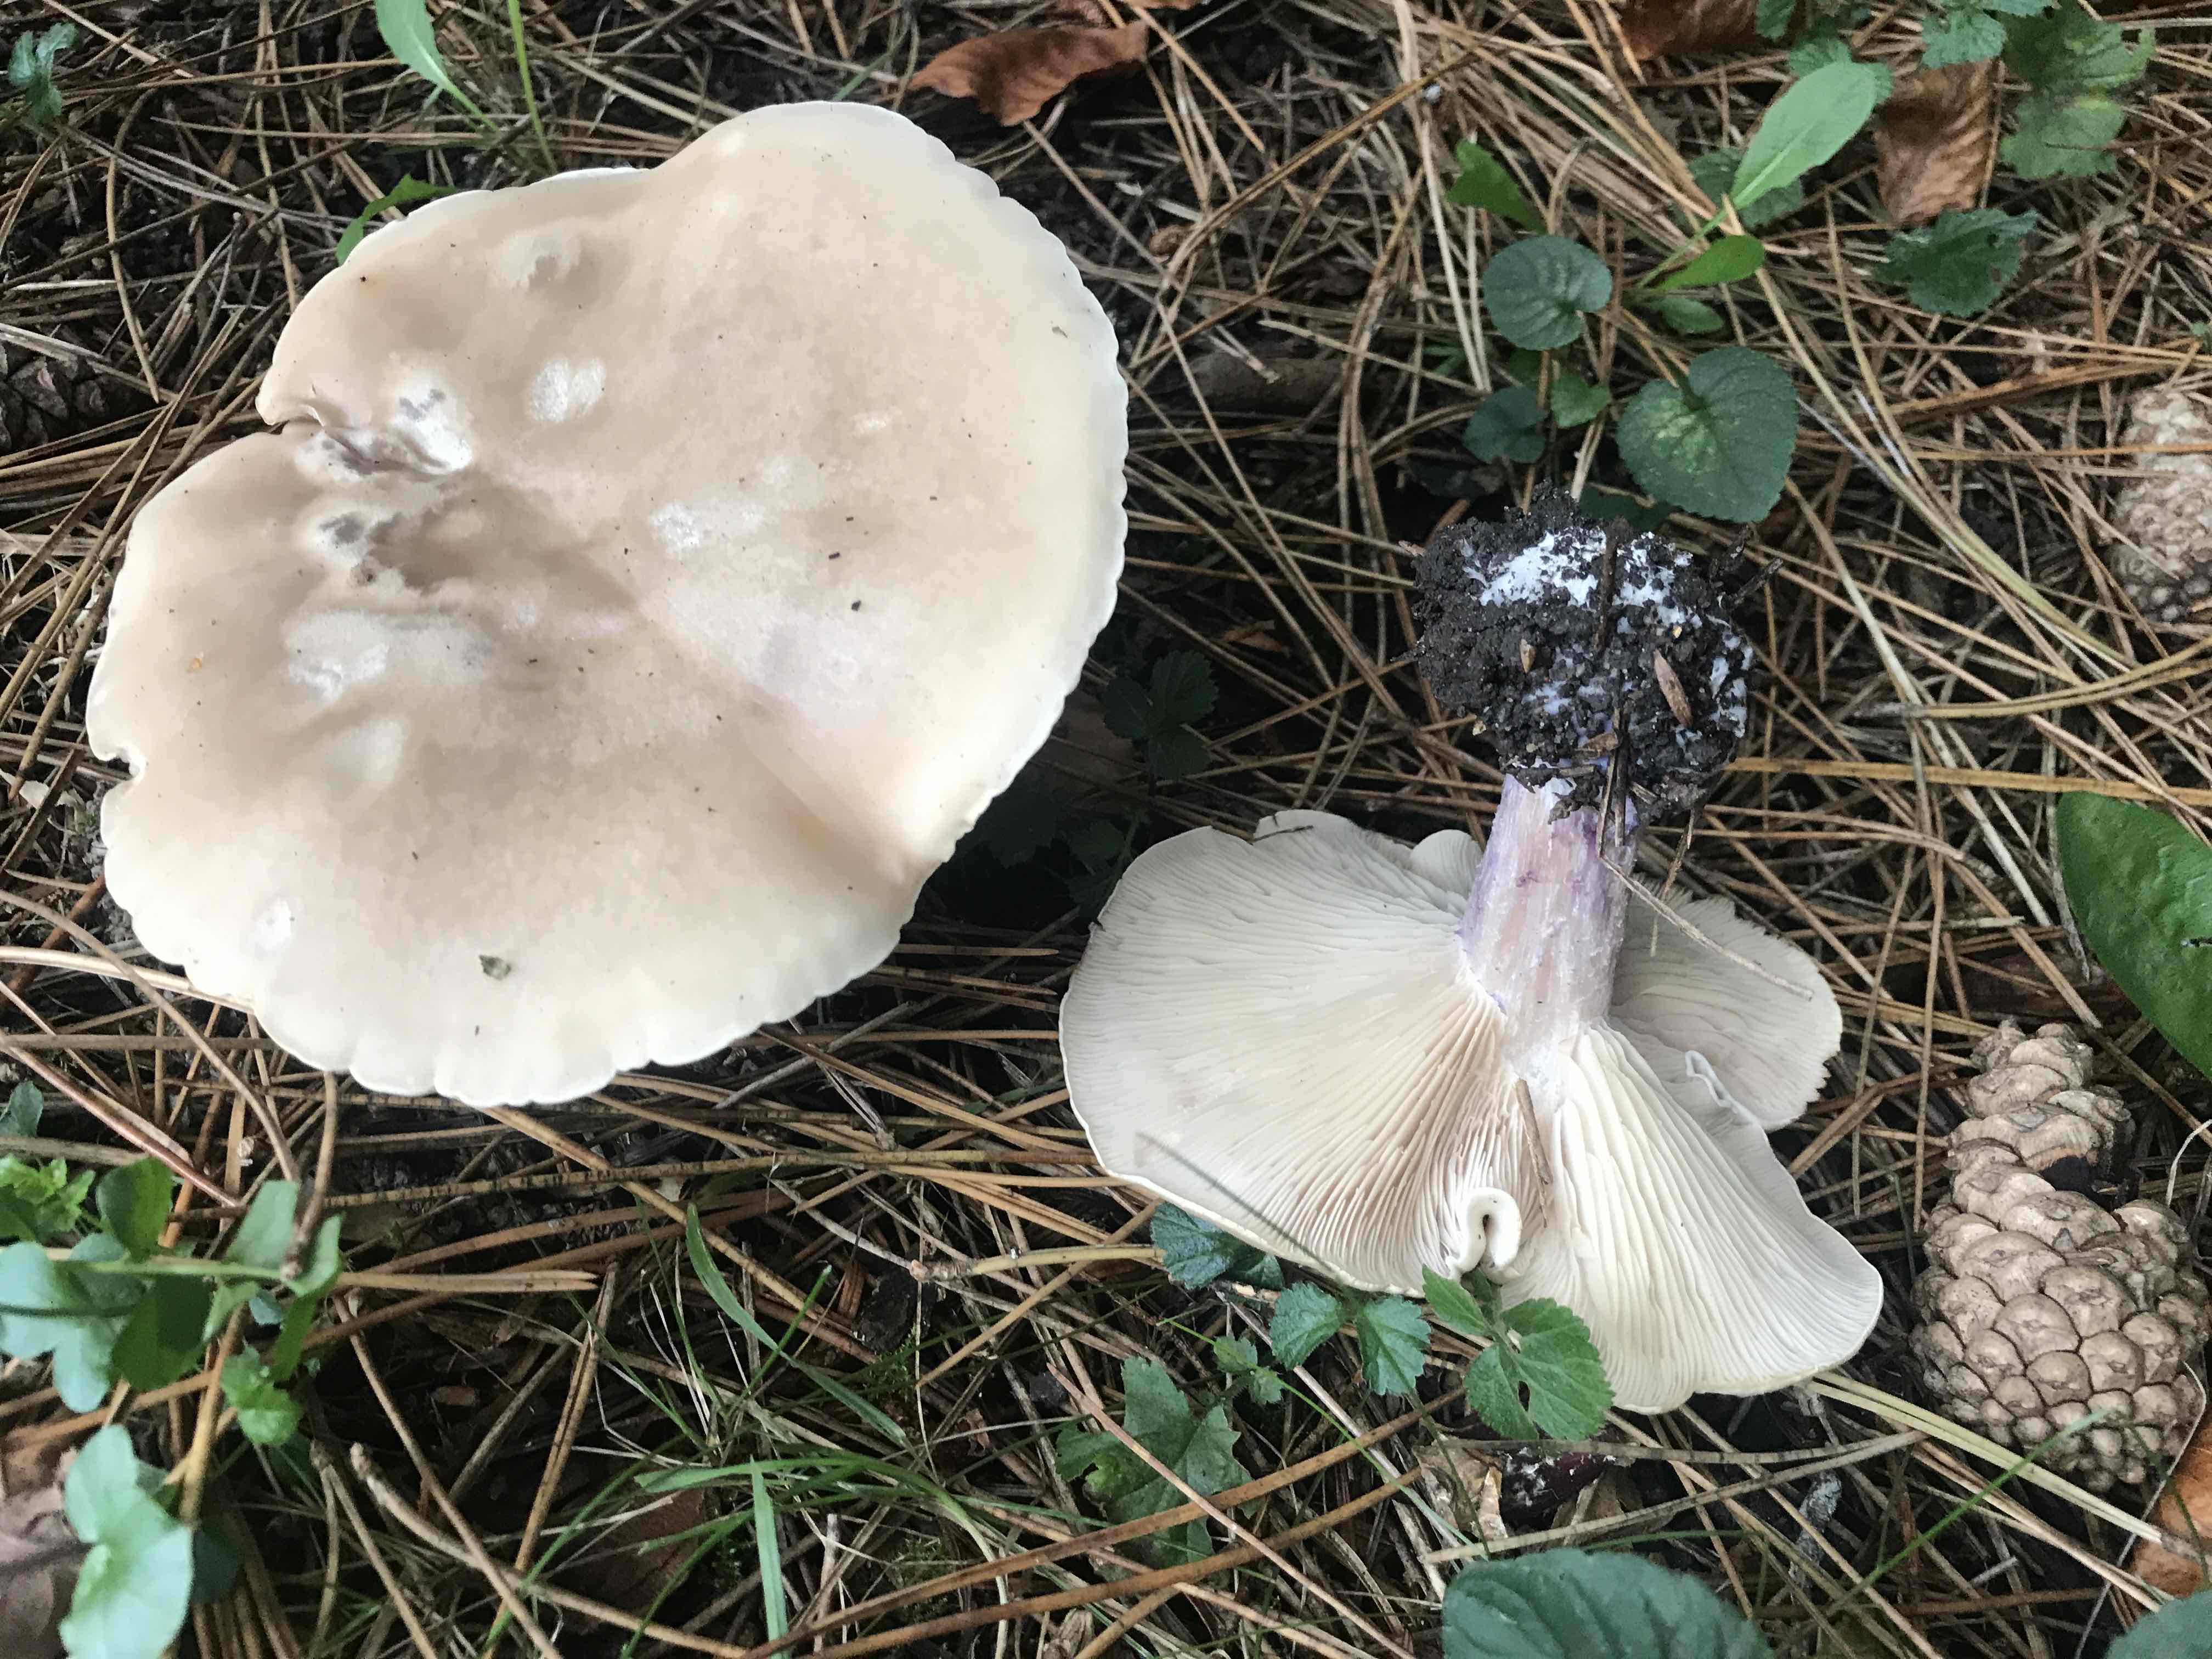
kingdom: Fungi
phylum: Basidiomycota
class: Agaricomycetes
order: Agaricales
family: Tricholomataceae
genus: Lepista
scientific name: Lepista personata
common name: bleg hekseringshat
